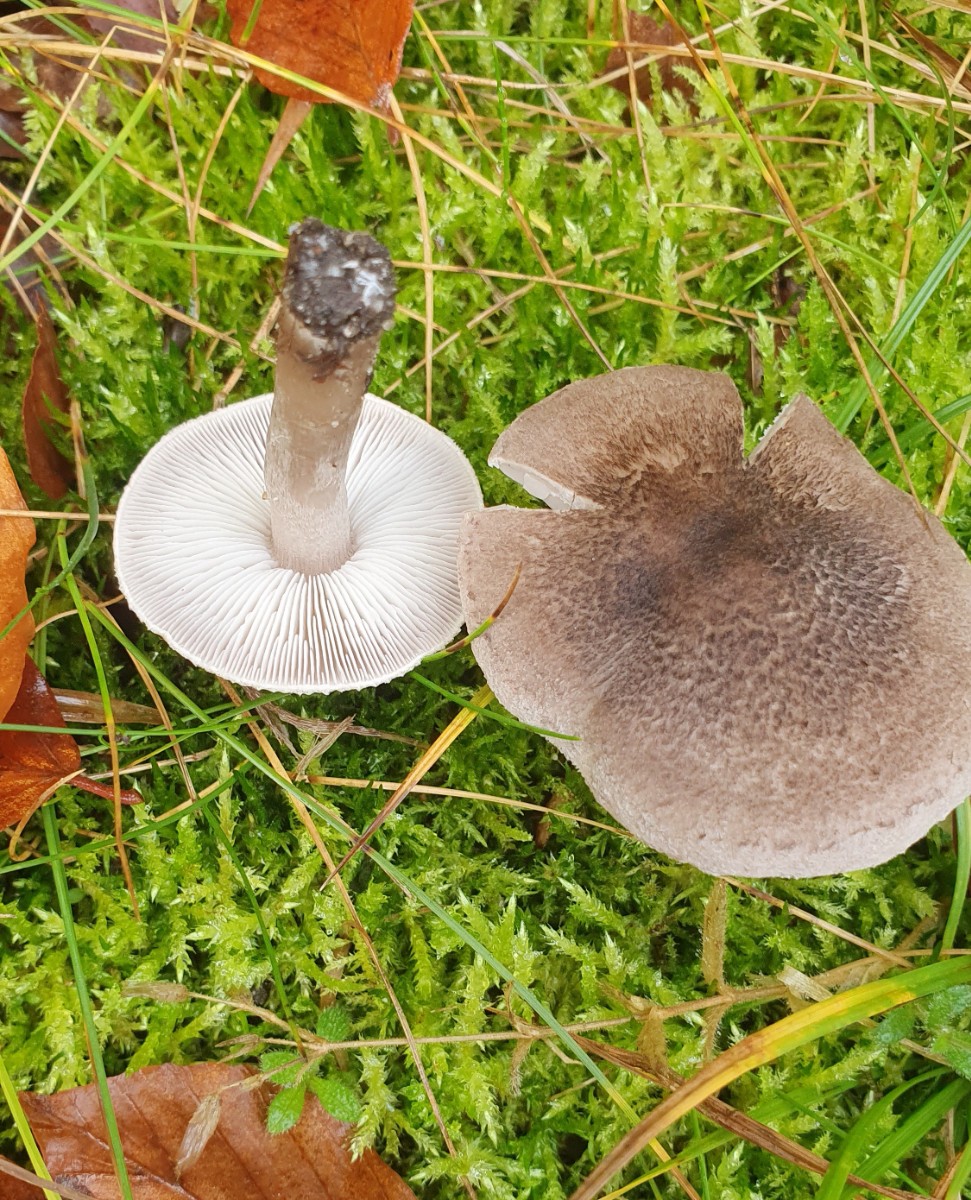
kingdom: Fungi
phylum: Basidiomycota
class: Agaricomycetes
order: Agaricales
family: Tricholomataceae
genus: Tricholoma
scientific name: Tricholoma argyraceum
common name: slør-ridderhat
